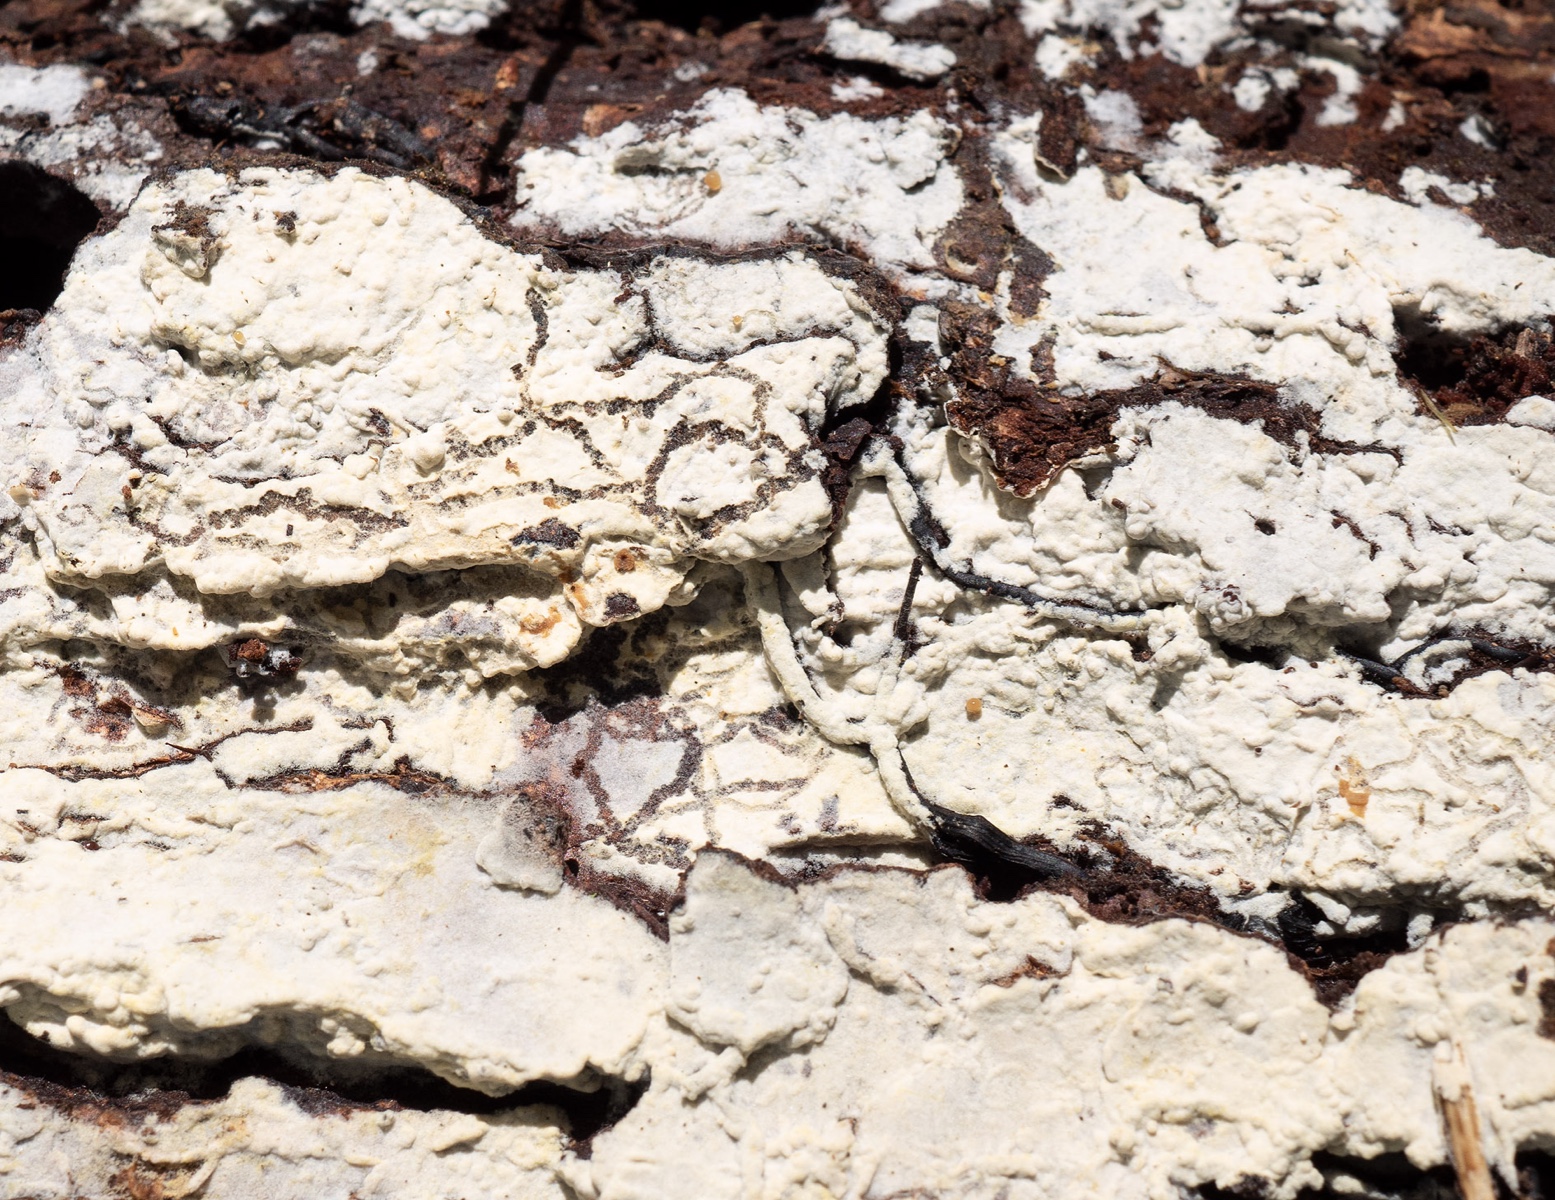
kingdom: Fungi
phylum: Basidiomycota
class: Agaricomycetes
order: Cantharellales
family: Botryobasidiaceae
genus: Botryobasidium
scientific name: Botryobasidium subcoronatum
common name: almindelig spindhinde
